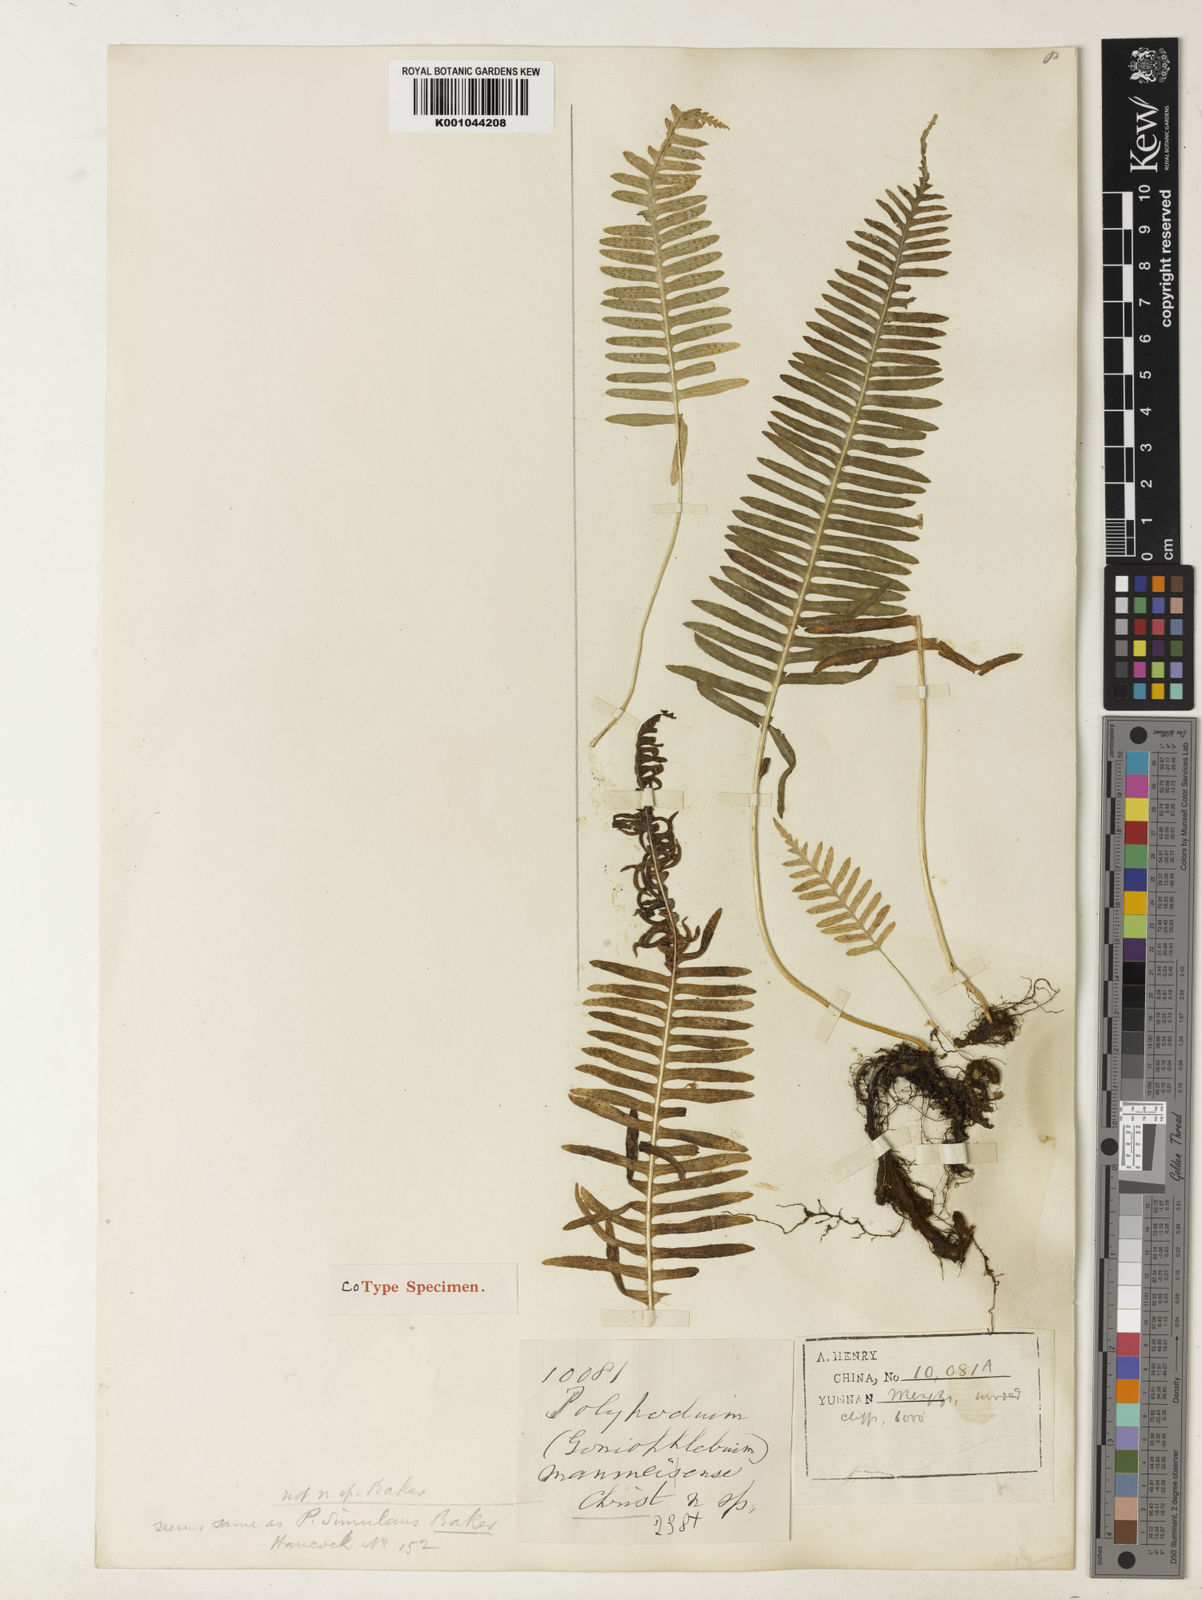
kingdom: Plantae
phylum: Tracheophyta
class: Polypodiopsida
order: Polypodiales
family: Polypodiaceae
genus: Goniophlebium
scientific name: Goniophlebium manmeiense
